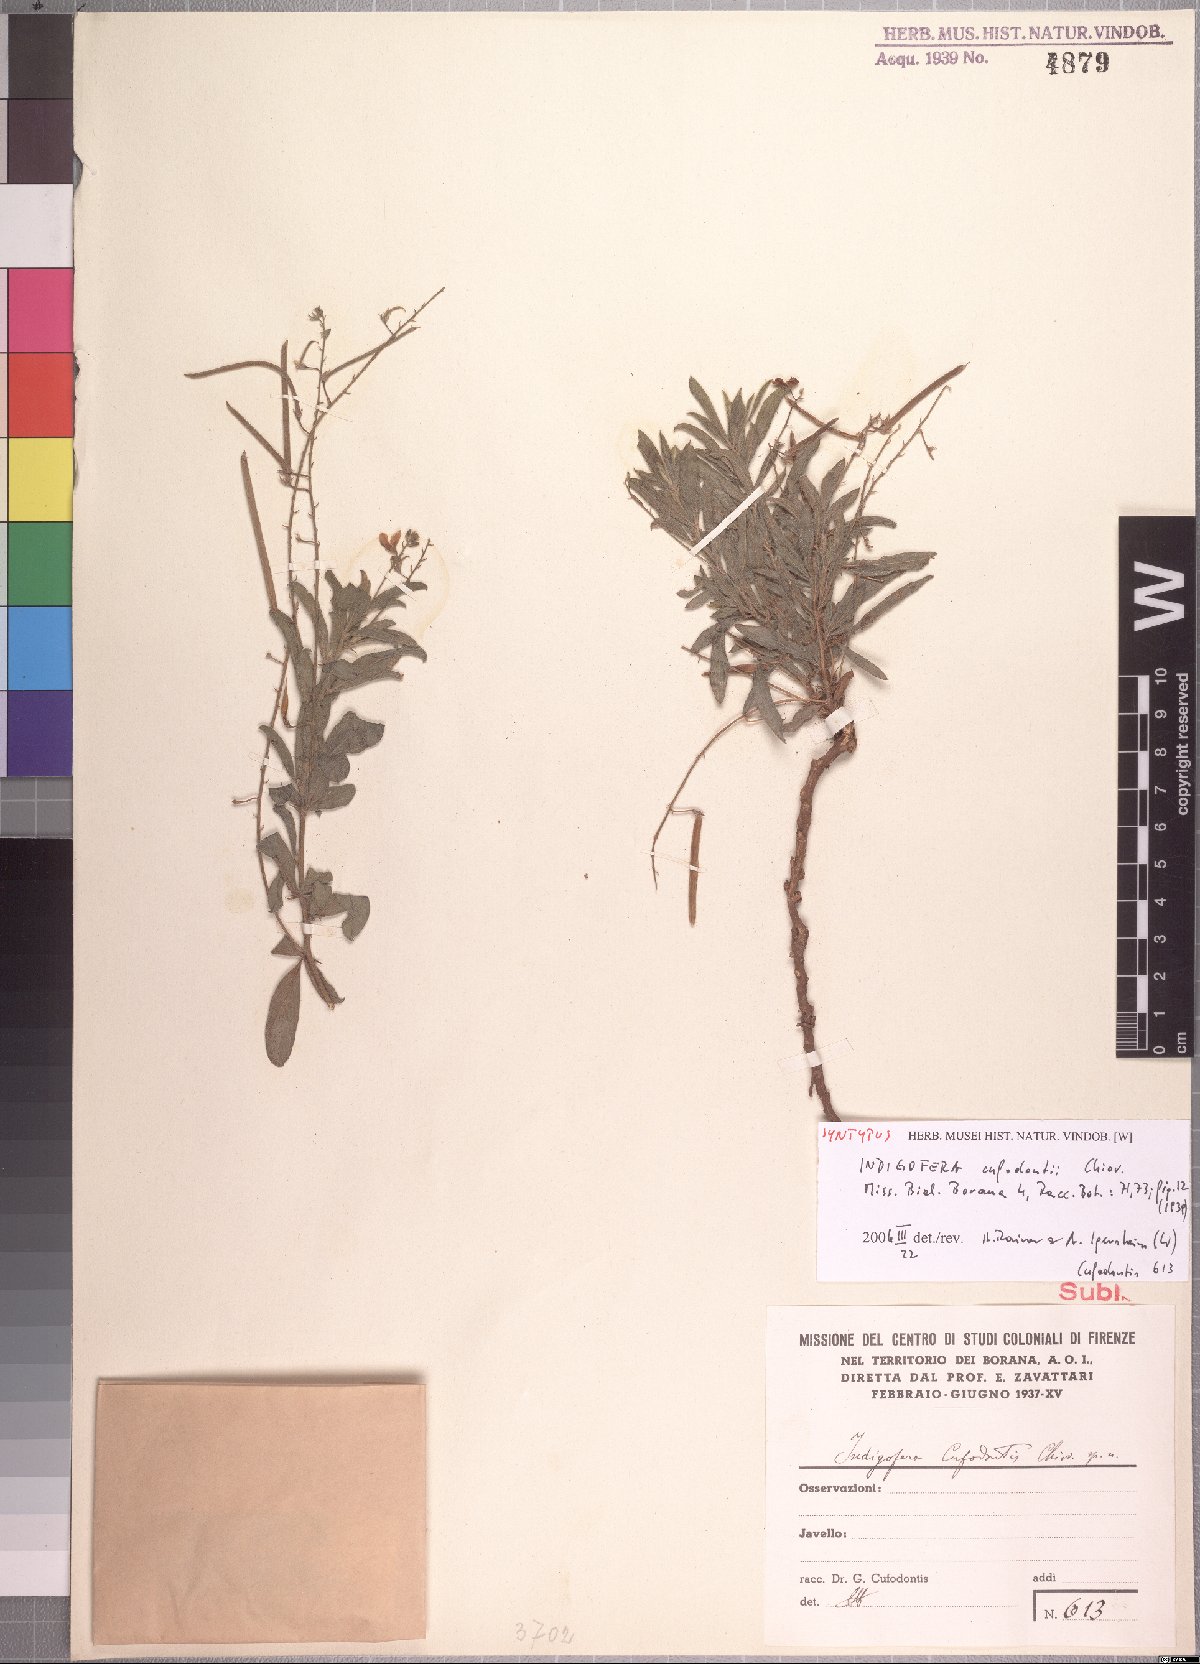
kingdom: Plantae
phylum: Tracheophyta
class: Magnoliopsida
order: Fabales
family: Fabaceae
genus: Microcharis
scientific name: Microcharis cufodontii
